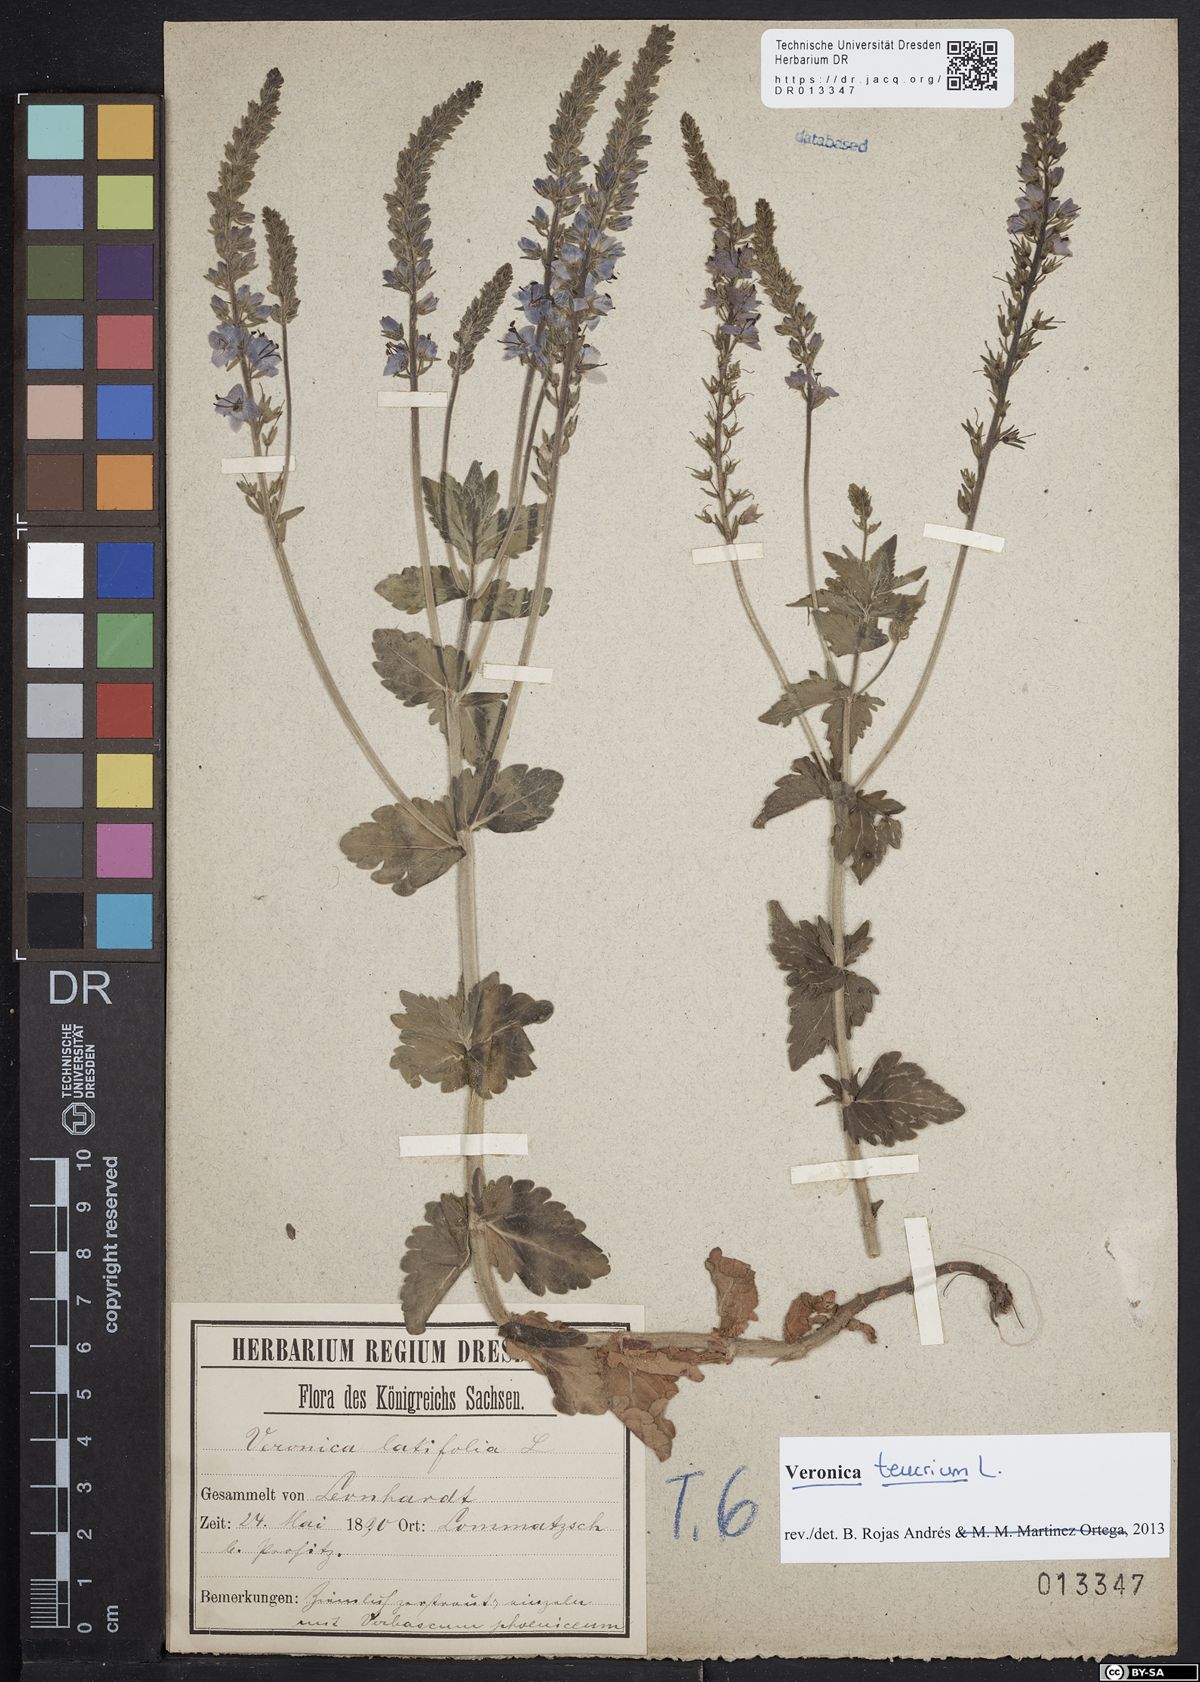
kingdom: Plantae
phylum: Tracheophyta
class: Magnoliopsida
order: Lamiales
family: Plantaginaceae
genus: Veronica
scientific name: Veronica teucrium
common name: Large speedwell
